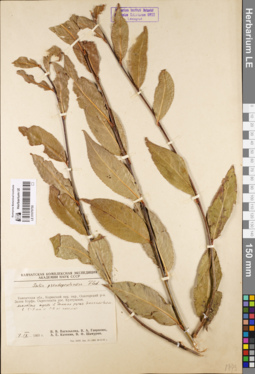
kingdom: Plantae
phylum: Tracheophyta
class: Magnoliopsida
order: Malpighiales
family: Salicaceae
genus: Salix
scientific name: Salix pseudopentandra
